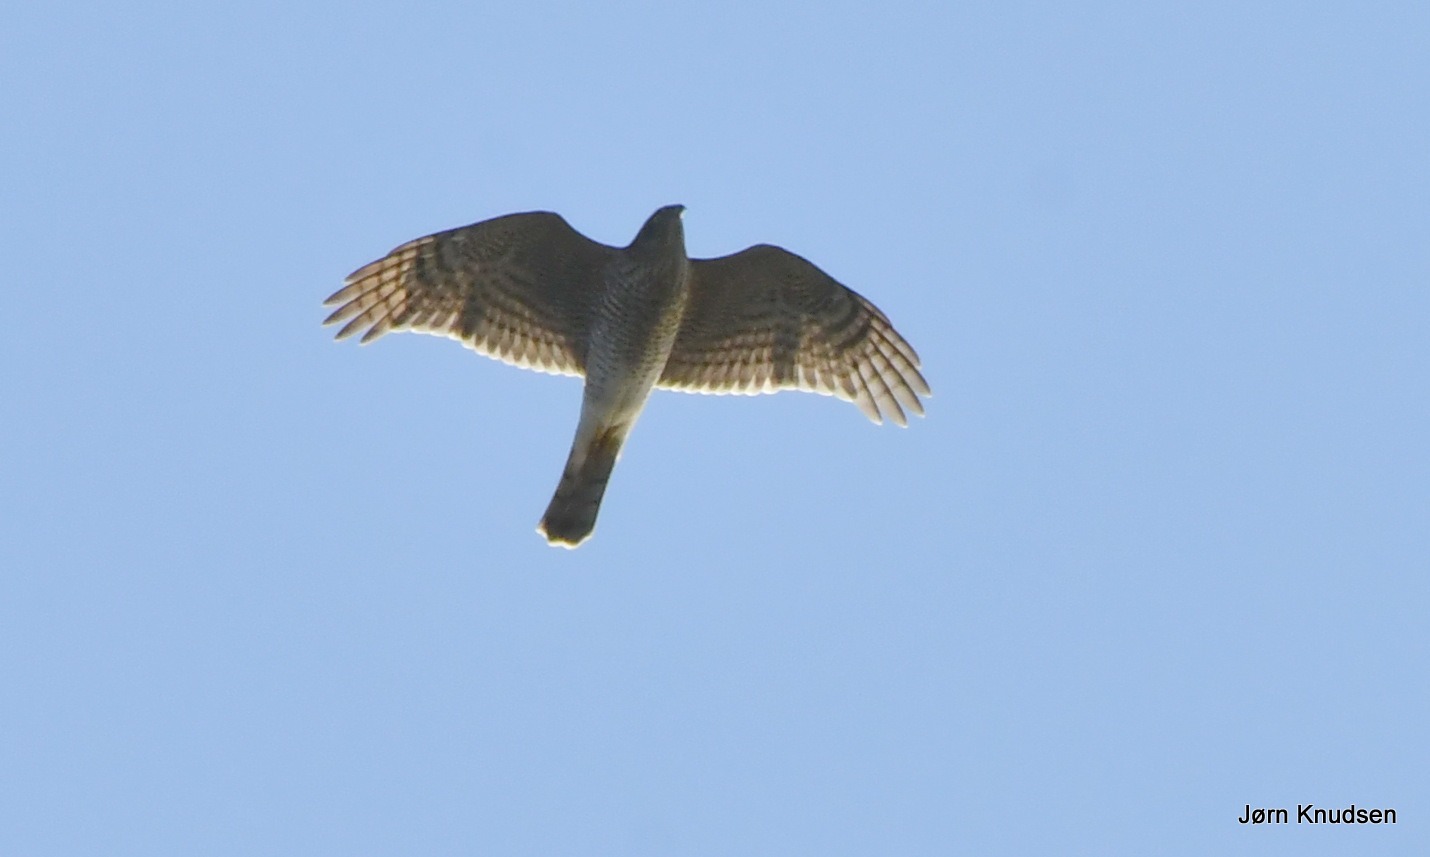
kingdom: Animalia
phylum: Chordata
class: Aves
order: Accipitriformes
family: Accipitridae
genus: Accipiter
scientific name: Accipiter nisus
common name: Spurvehøg
